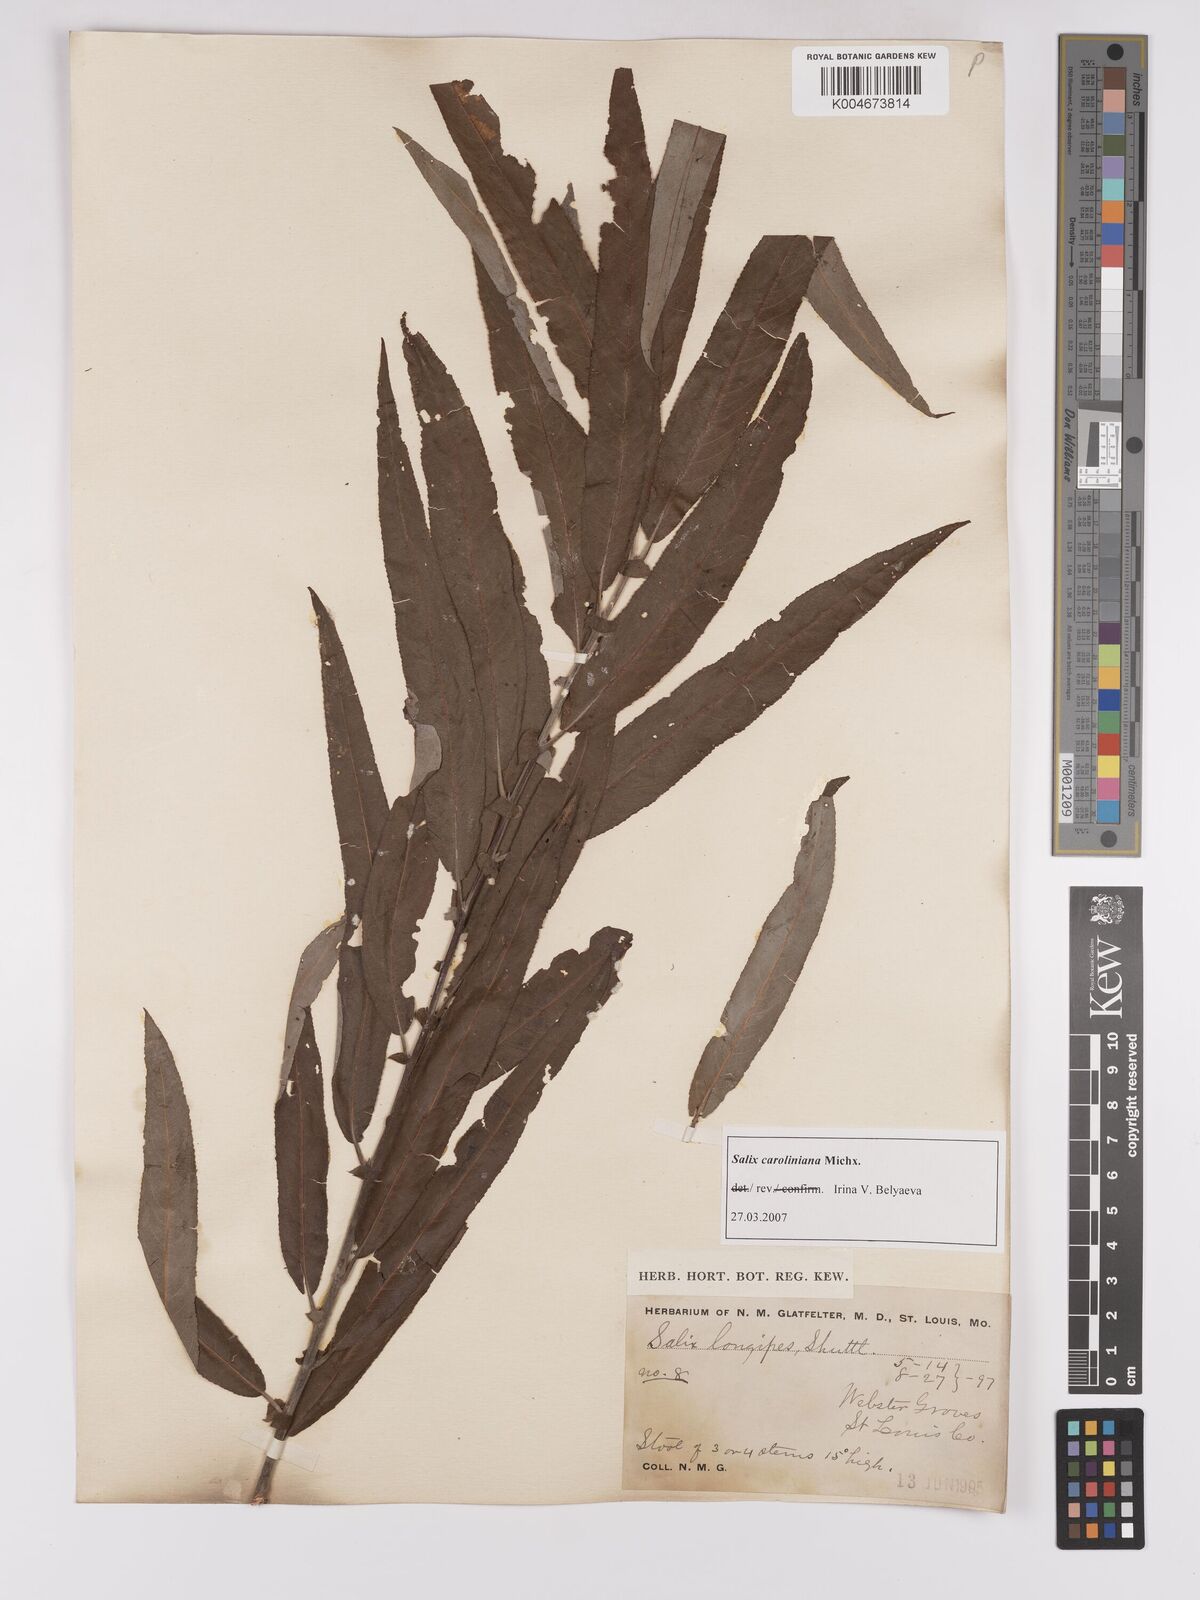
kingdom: Plantae
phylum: Tracheophyta
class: Magnoliopsida
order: Malpighiales
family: Salicaceae
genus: Salix
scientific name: Salix caroliniana
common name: Carolina willow
